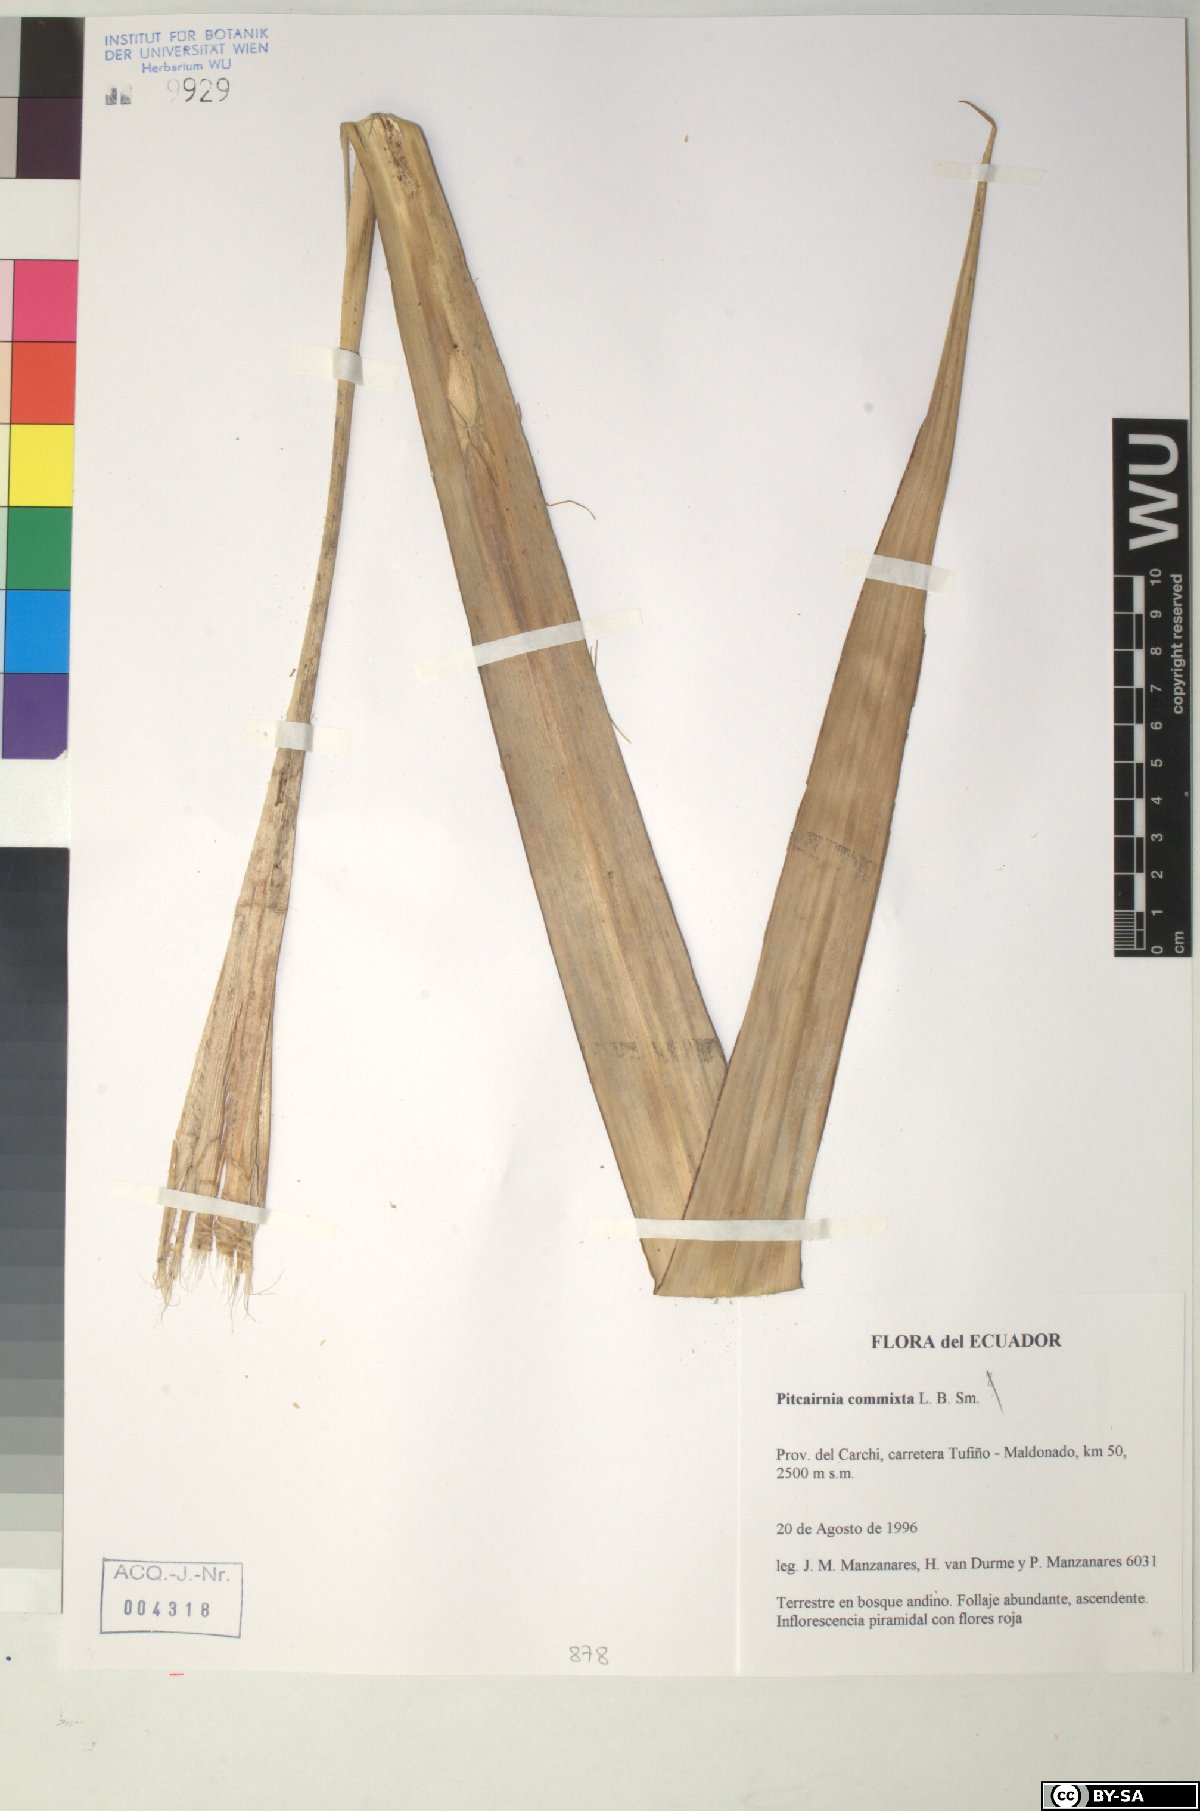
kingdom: Plantae
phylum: Tracheophyta
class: Liliopsida
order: Poales
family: Bromeliaceae
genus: Pitcairnia
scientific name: Pitcairnia commixta
